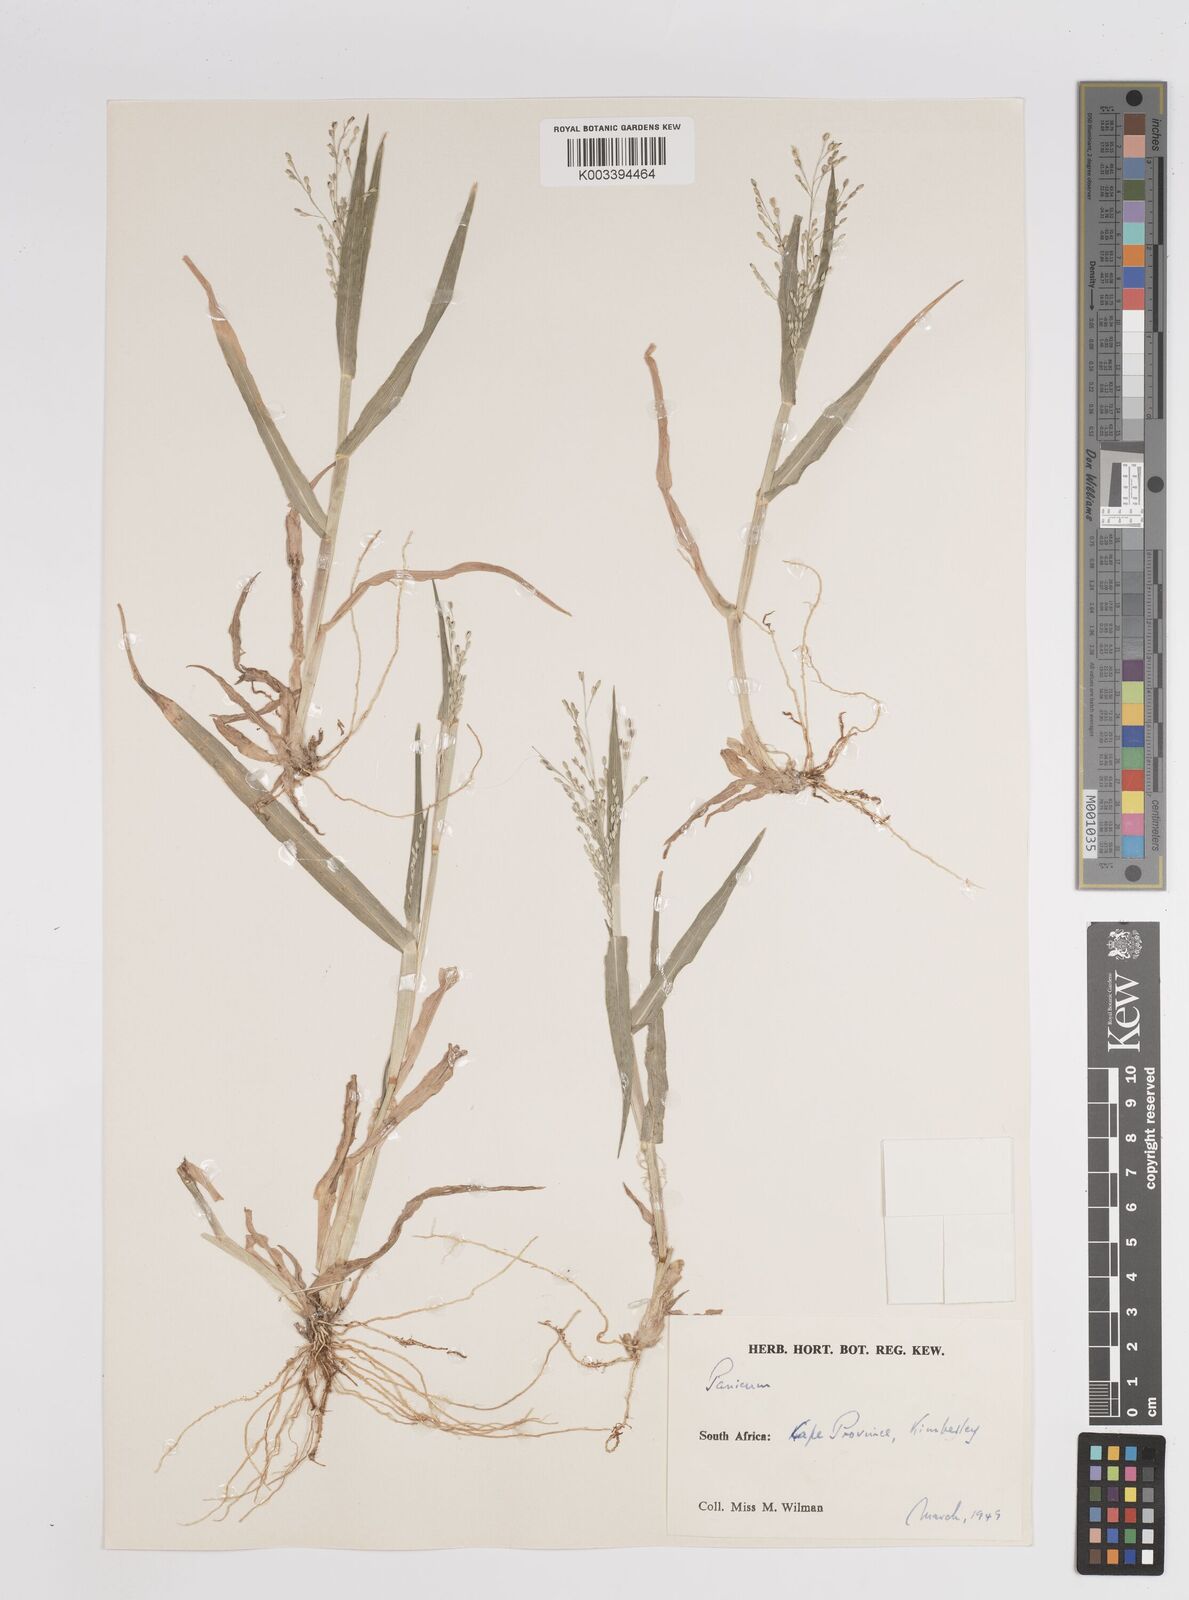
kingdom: Plantae
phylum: Tracheophyta
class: Liliopsida
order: Poales
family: Poaceae
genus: Panicum
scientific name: Panicum
